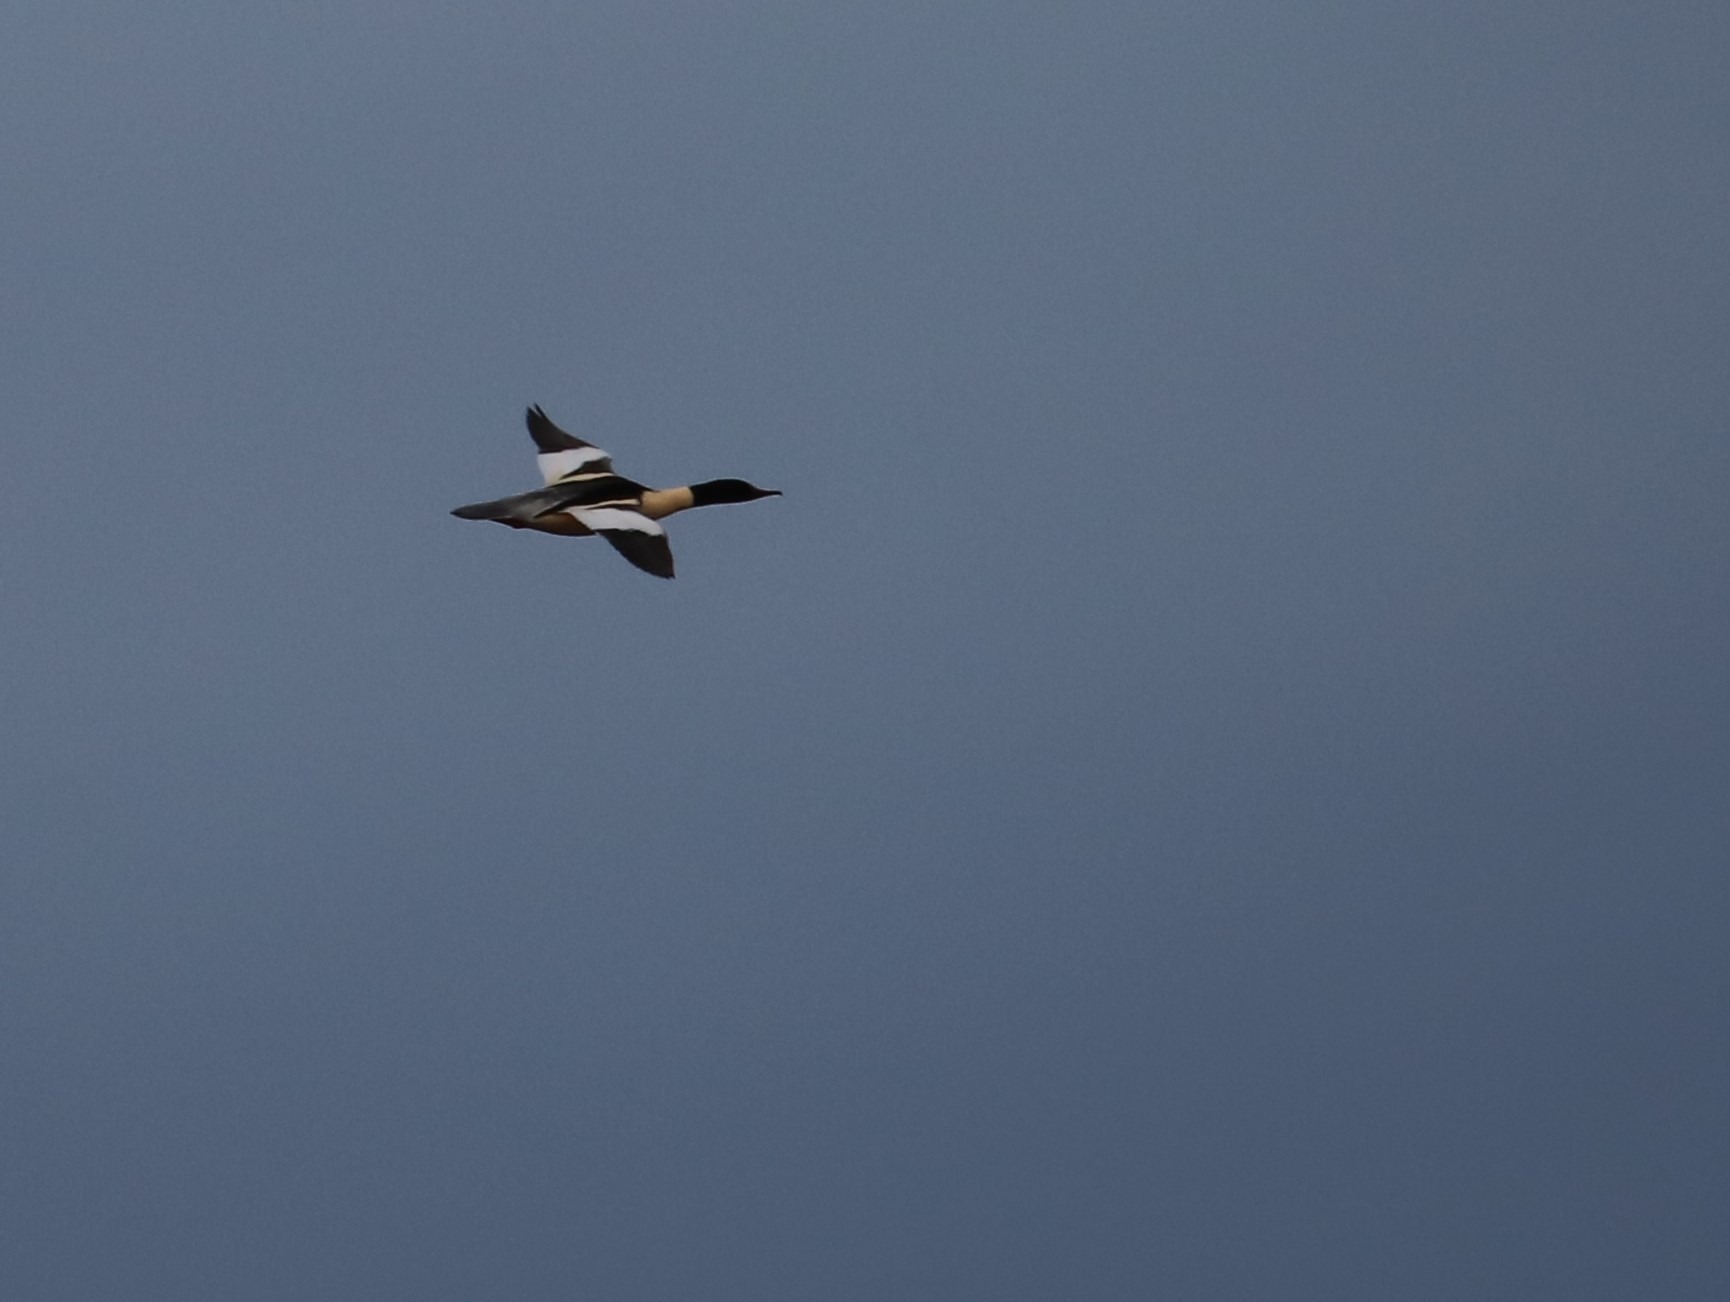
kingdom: Animalia
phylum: Chordata
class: Aves
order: Anseriformes
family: Anatidae
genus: Mergus
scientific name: Mergus merganser
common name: Stor skallesluger
